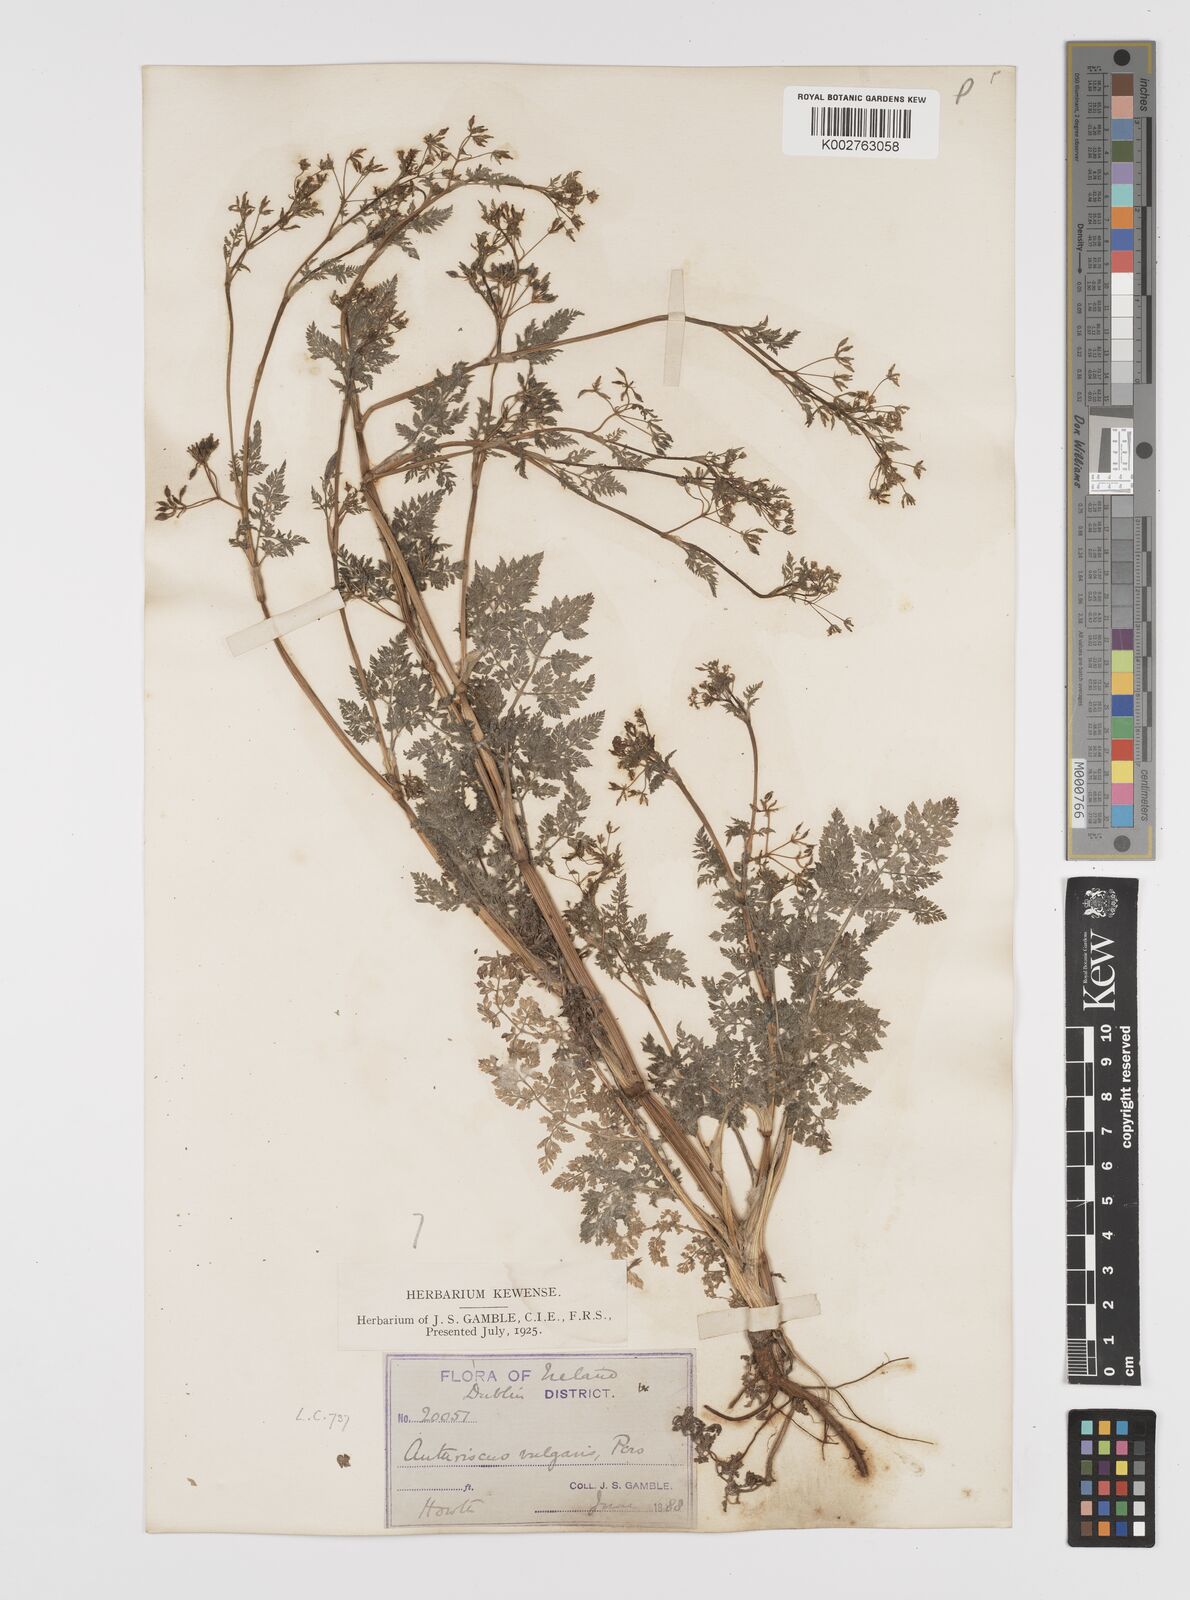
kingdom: Plantae
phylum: Tracheophyta
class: Magnoliopsida
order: Apiales
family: Apiaceae
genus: Anthriscus
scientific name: Anthriscus caucalis
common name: Bur chervil
